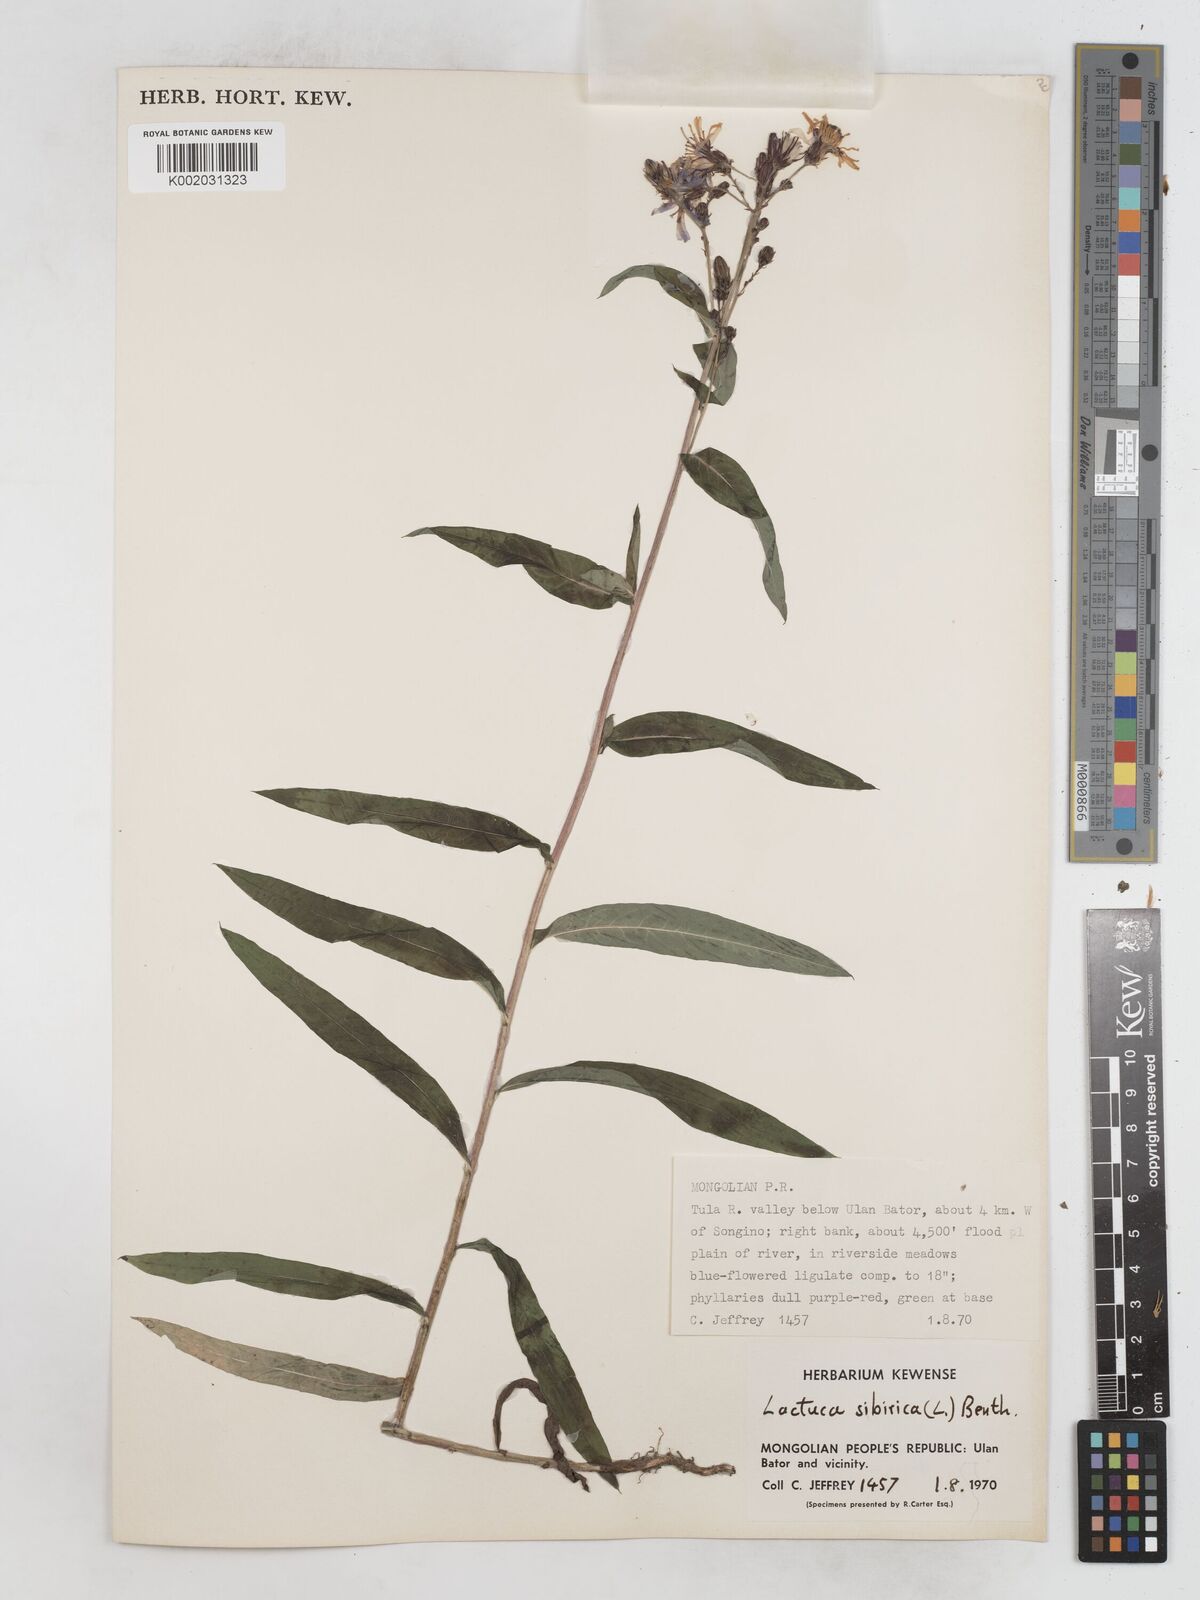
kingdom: Plantae
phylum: Tracheophyta
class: Magnoliopsida
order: Asterales
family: Asteraceae
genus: Lactuca
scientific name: Lactuca sibirica
